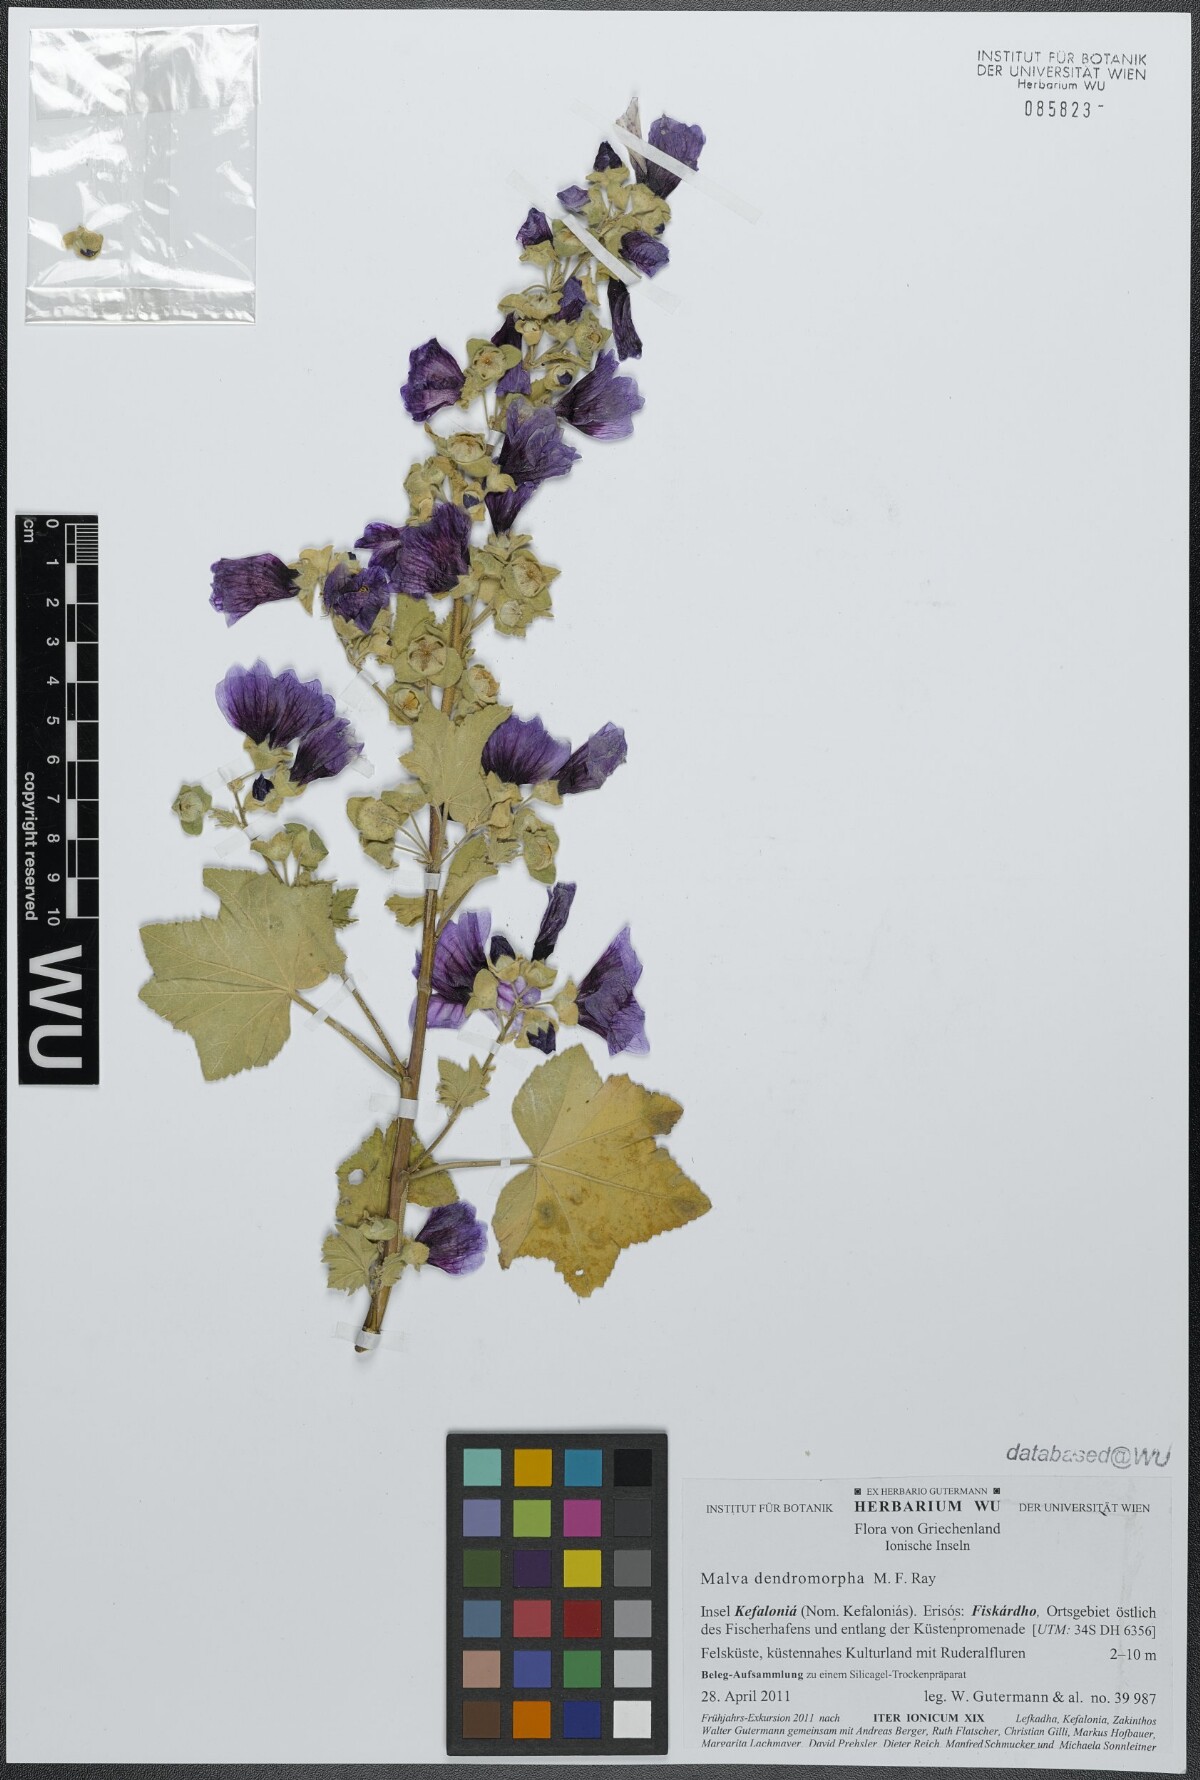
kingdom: Plantae
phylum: Tracheophyta
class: Magnoliopsida
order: Malvales
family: Malvaceae
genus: Malva
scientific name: Malva arborea
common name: Tree mallow
